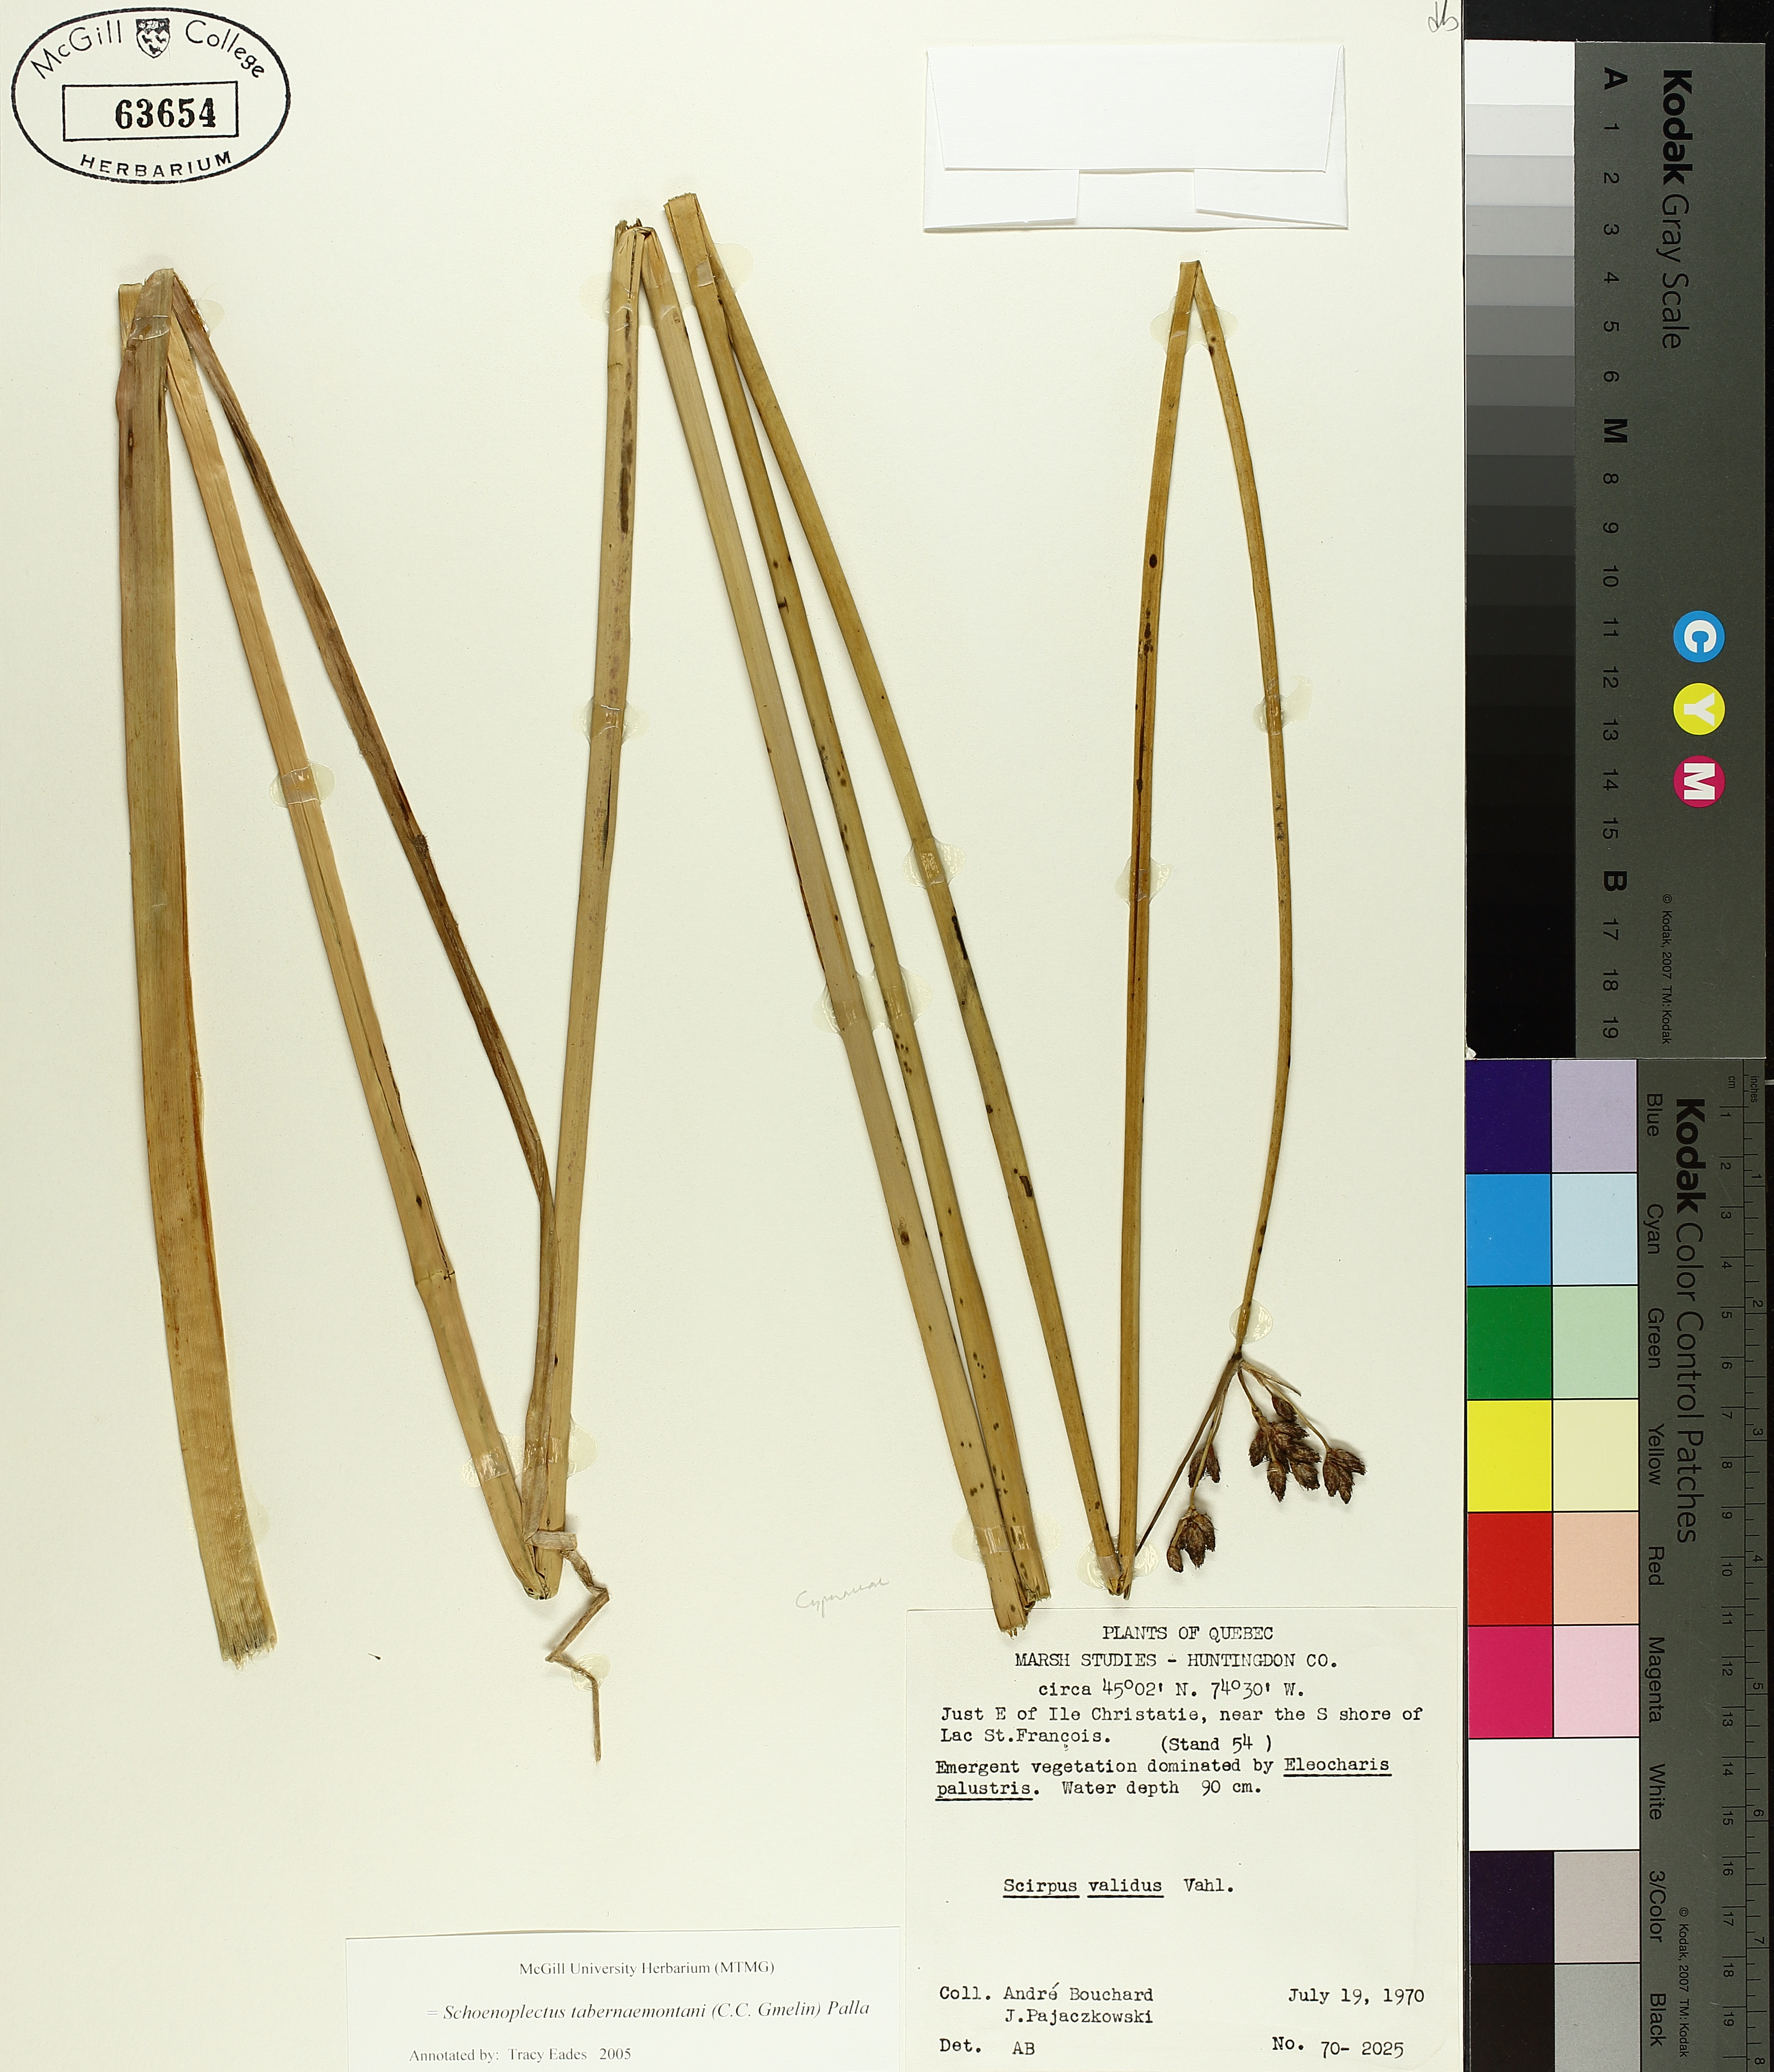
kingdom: Plantae
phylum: Tracheophyta
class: Liliopsida
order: Poales
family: Cyperaceae
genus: Schoenoplectus
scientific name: Schoenoplectus tabernaemontani
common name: Grey club-rush
